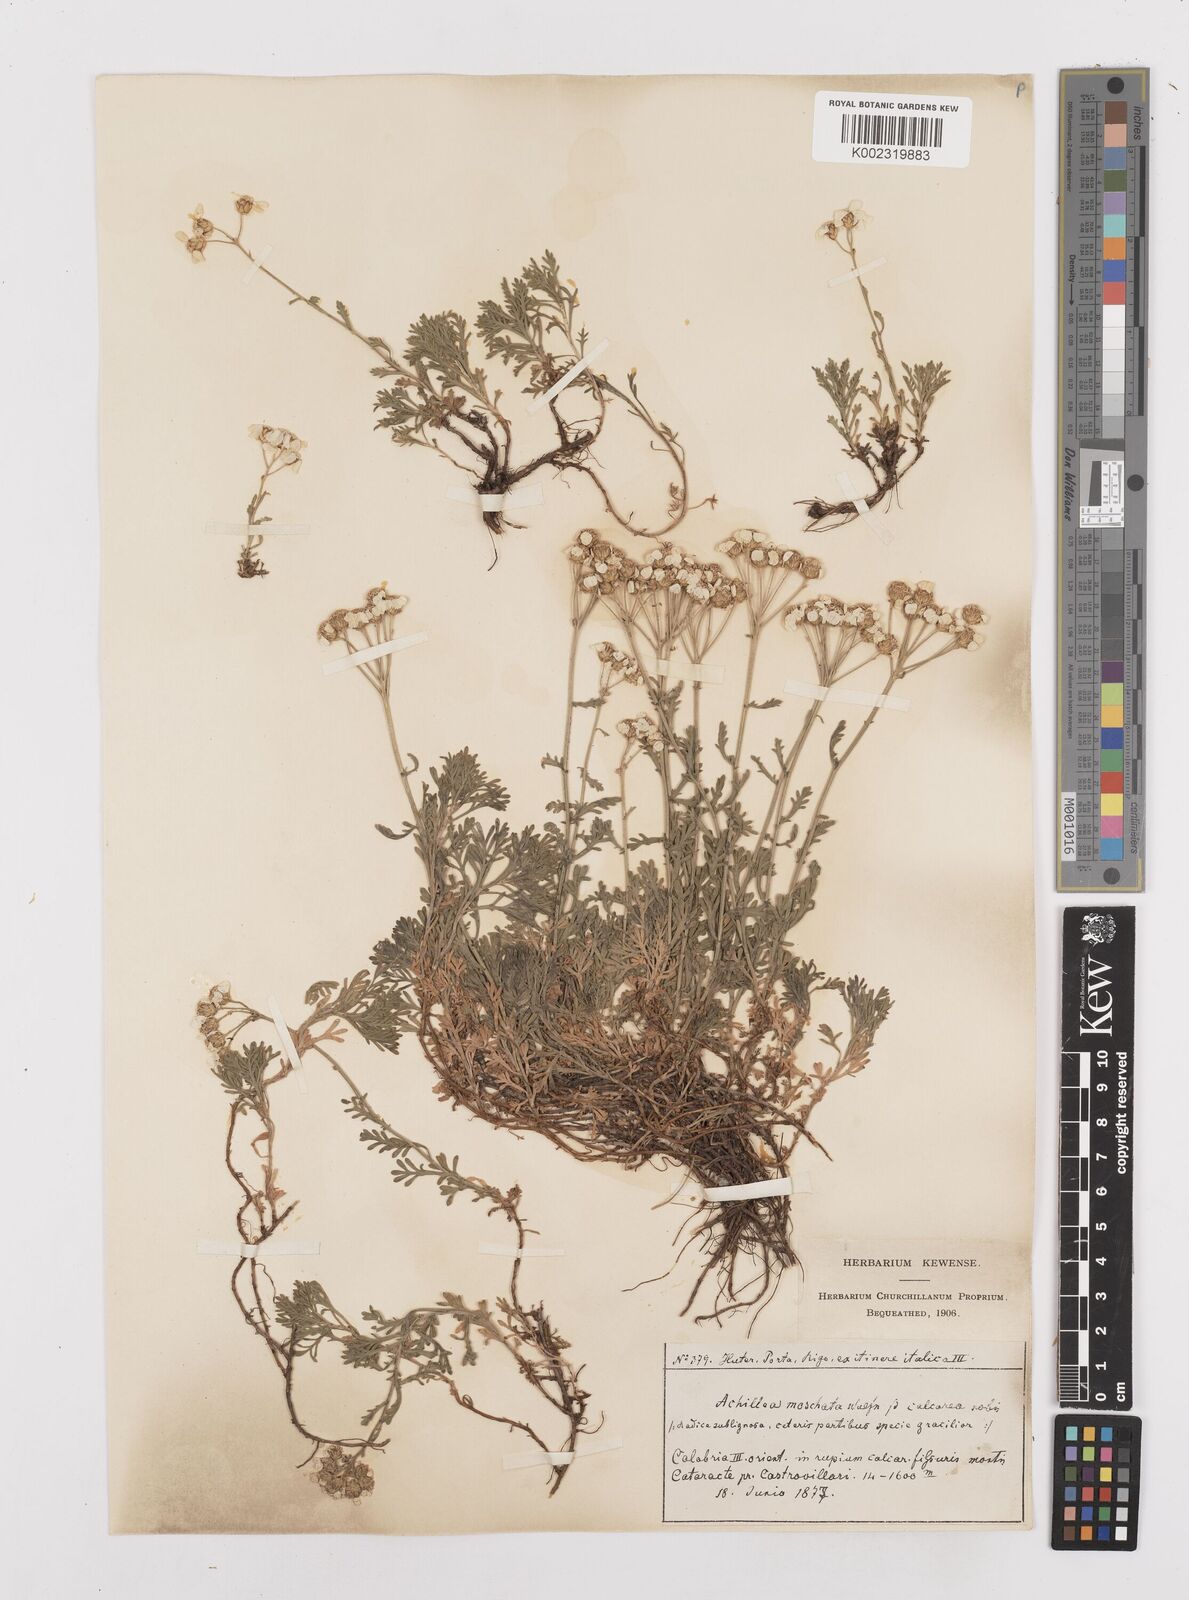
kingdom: Plantae
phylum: Tracheophyta
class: Magnoliopsida
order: Asterales
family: Asteraceae
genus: Achillea
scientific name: Achillea rupestris
